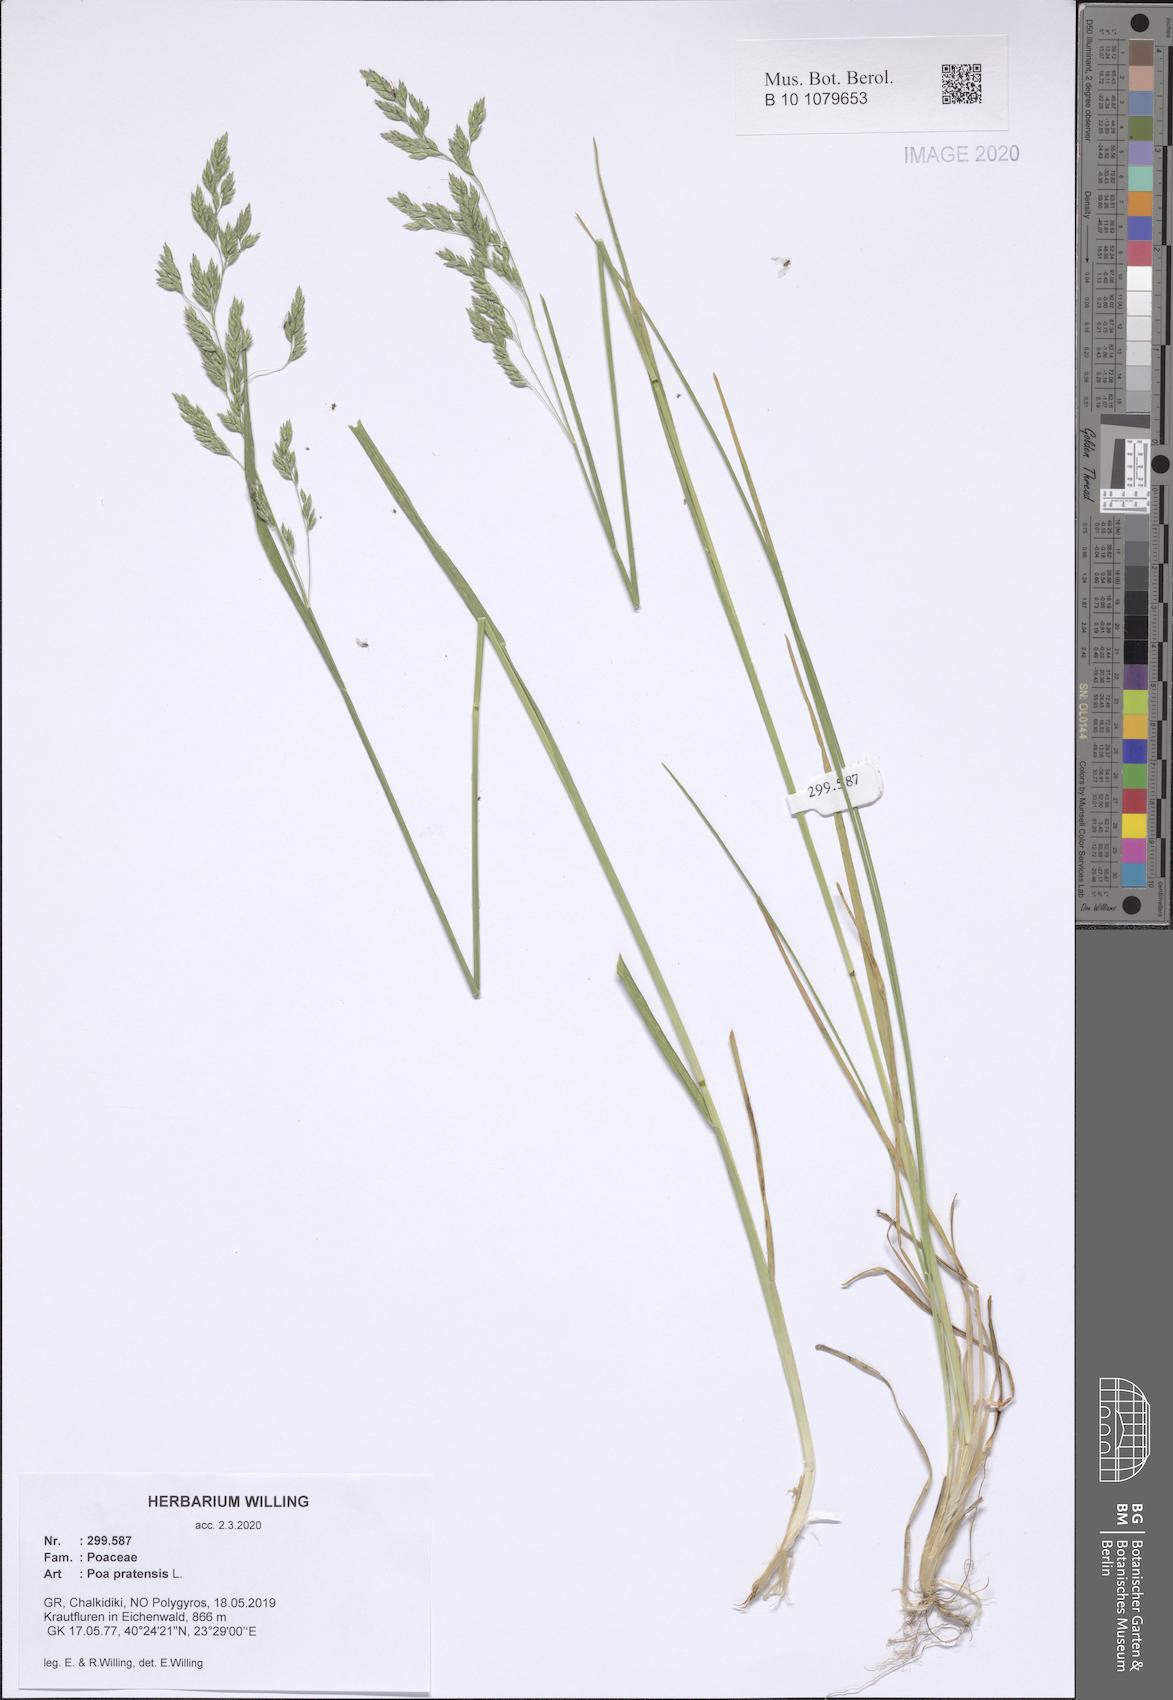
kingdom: Plantae
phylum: Tracheophyta
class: Liliopsida
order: Poales
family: Poaceae
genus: Poa
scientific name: Poa pratensis
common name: Kentucky bluegrass
